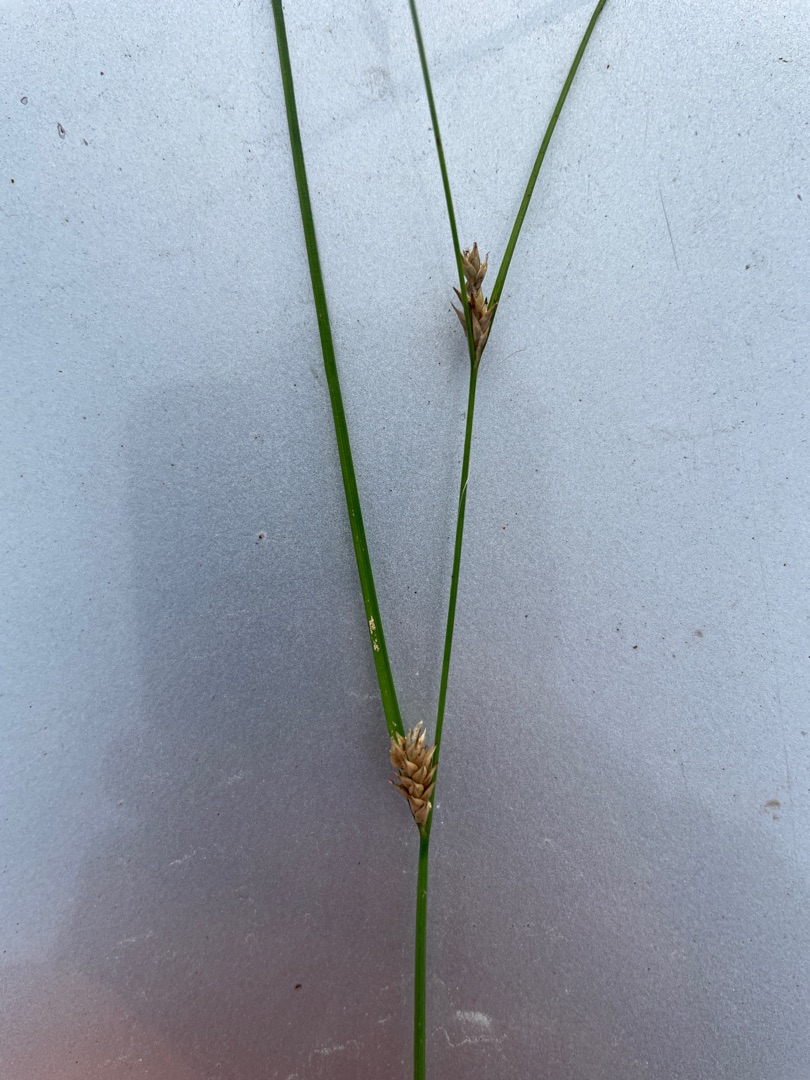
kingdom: Plantae
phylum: Tracheophyta
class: Liliopsida
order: Poales
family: Cyperaceae
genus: Carex
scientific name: Carex remota
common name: Akselblomstret star
